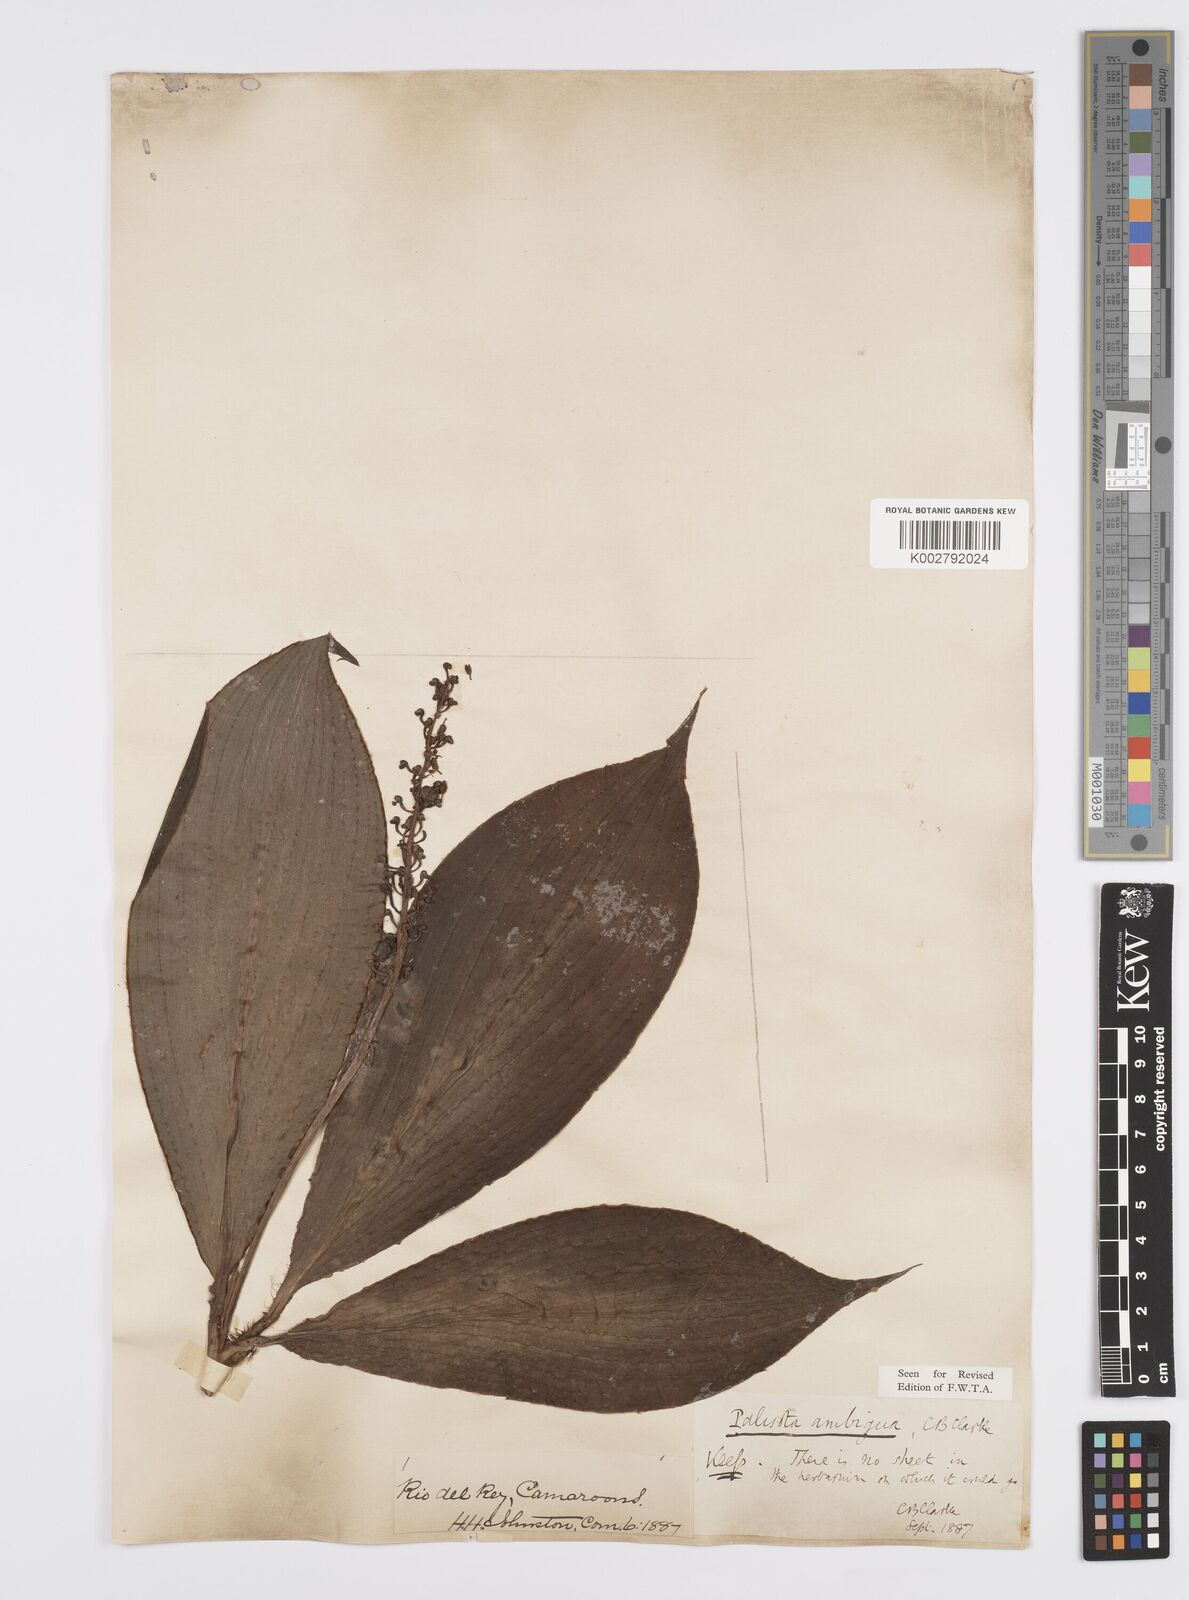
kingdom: Plantae
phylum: Tracheophyta
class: Liliopsida
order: Commelinales
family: Commelinaceae
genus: Palisota
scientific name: Palisota ambigua
